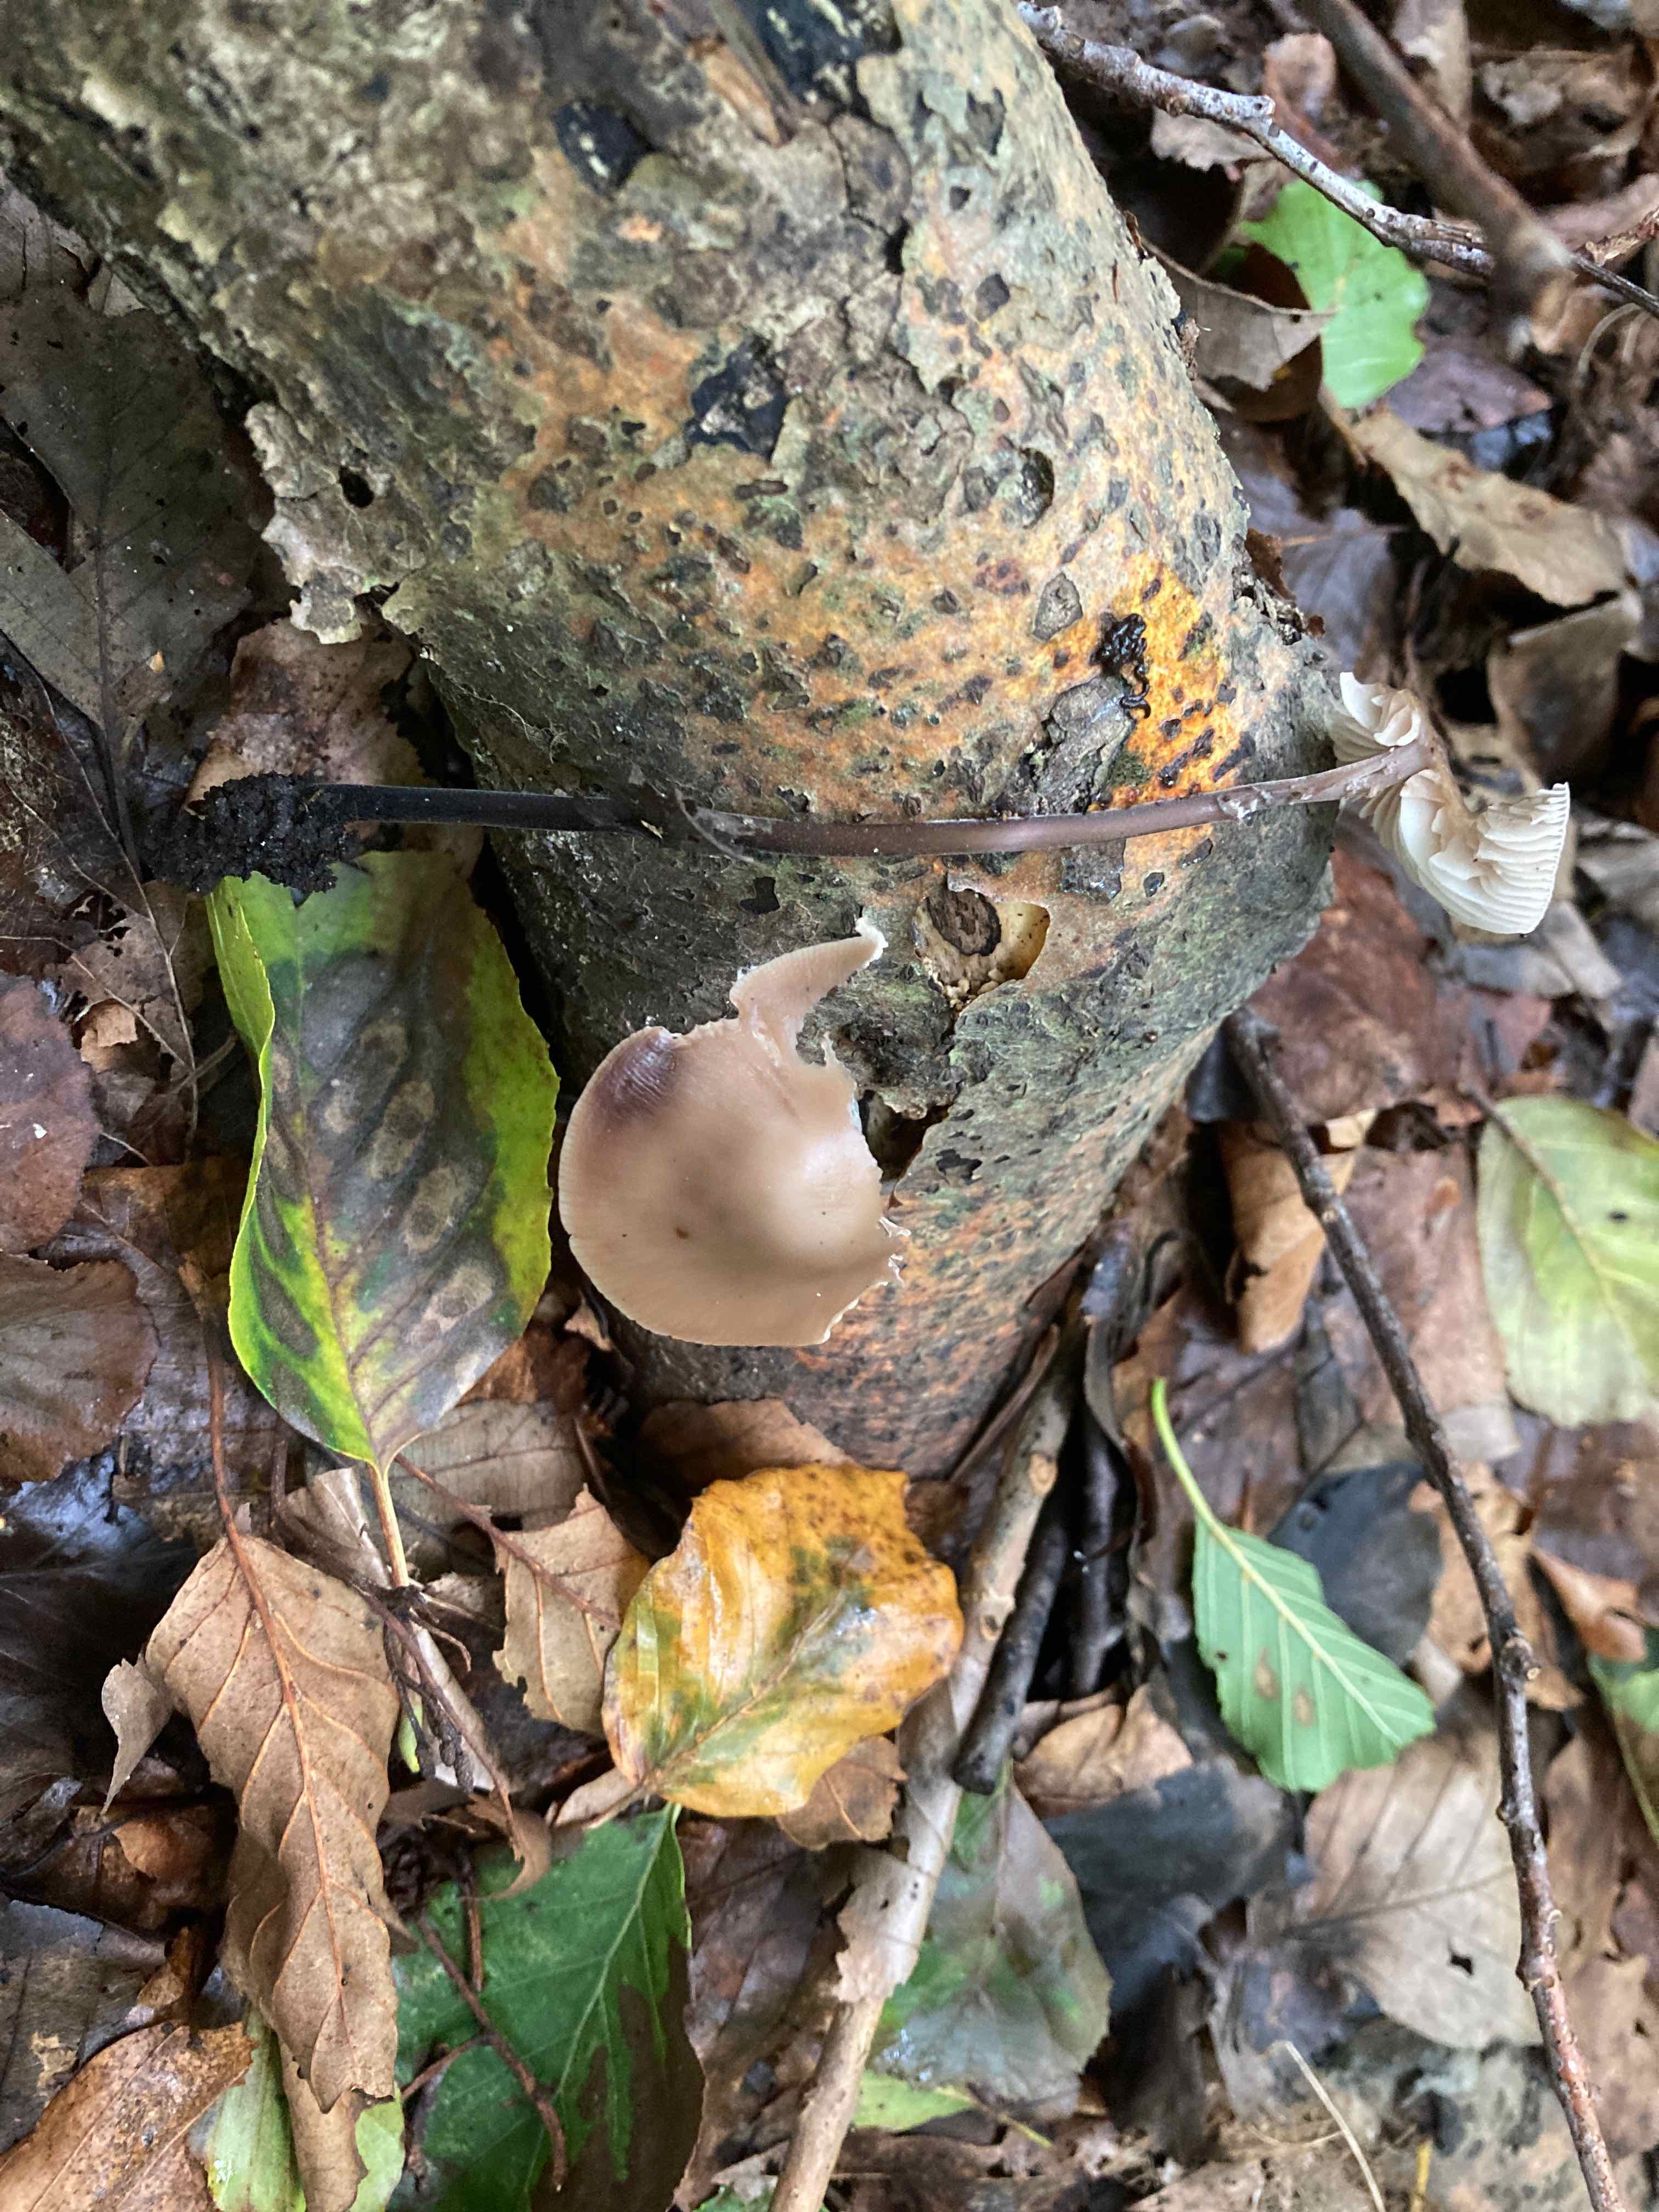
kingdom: Fungi
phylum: Basidiomycota
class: Agaricomycetes
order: Agaricales
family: Omphalotaceae
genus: Mycetinis
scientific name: Mycetinis alliaceus
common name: stor løghat
